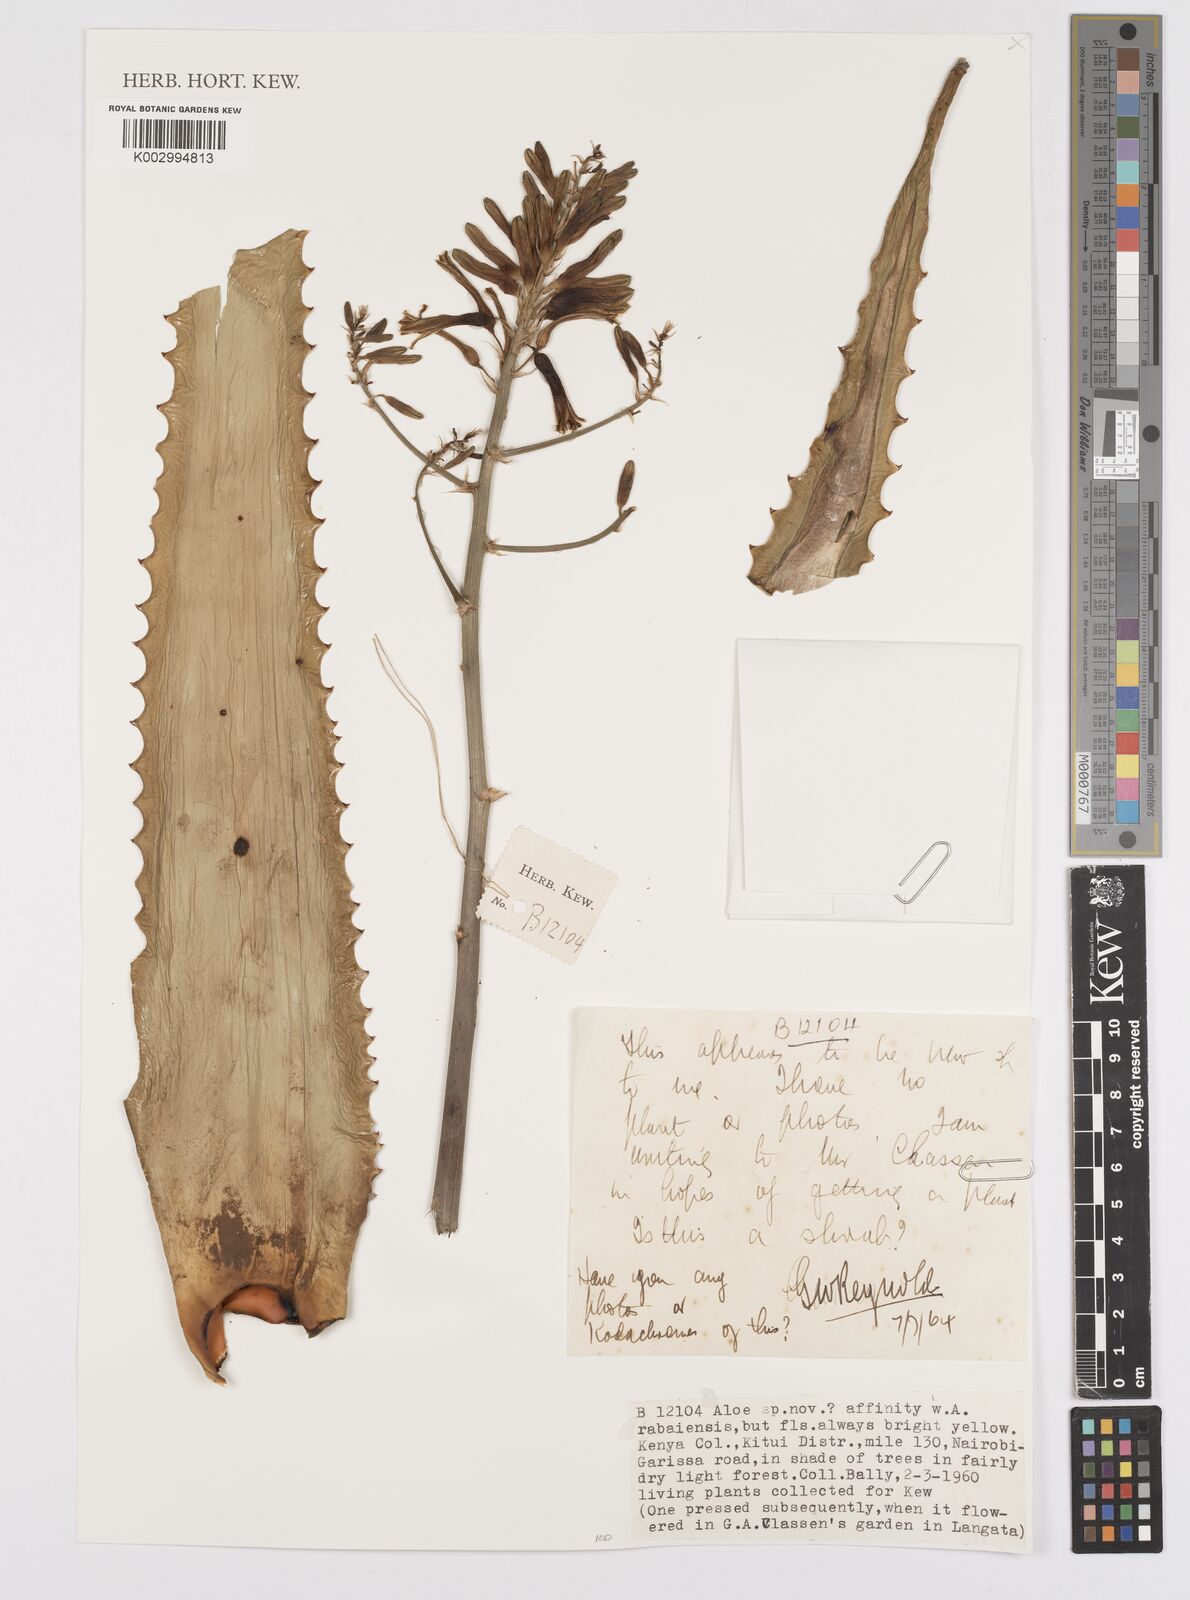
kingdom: Plantae
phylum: Tracheophyta
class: Liliopsida
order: Asparagales
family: Asphodelaceae
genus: Aloe
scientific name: Aloe rabaiensis
